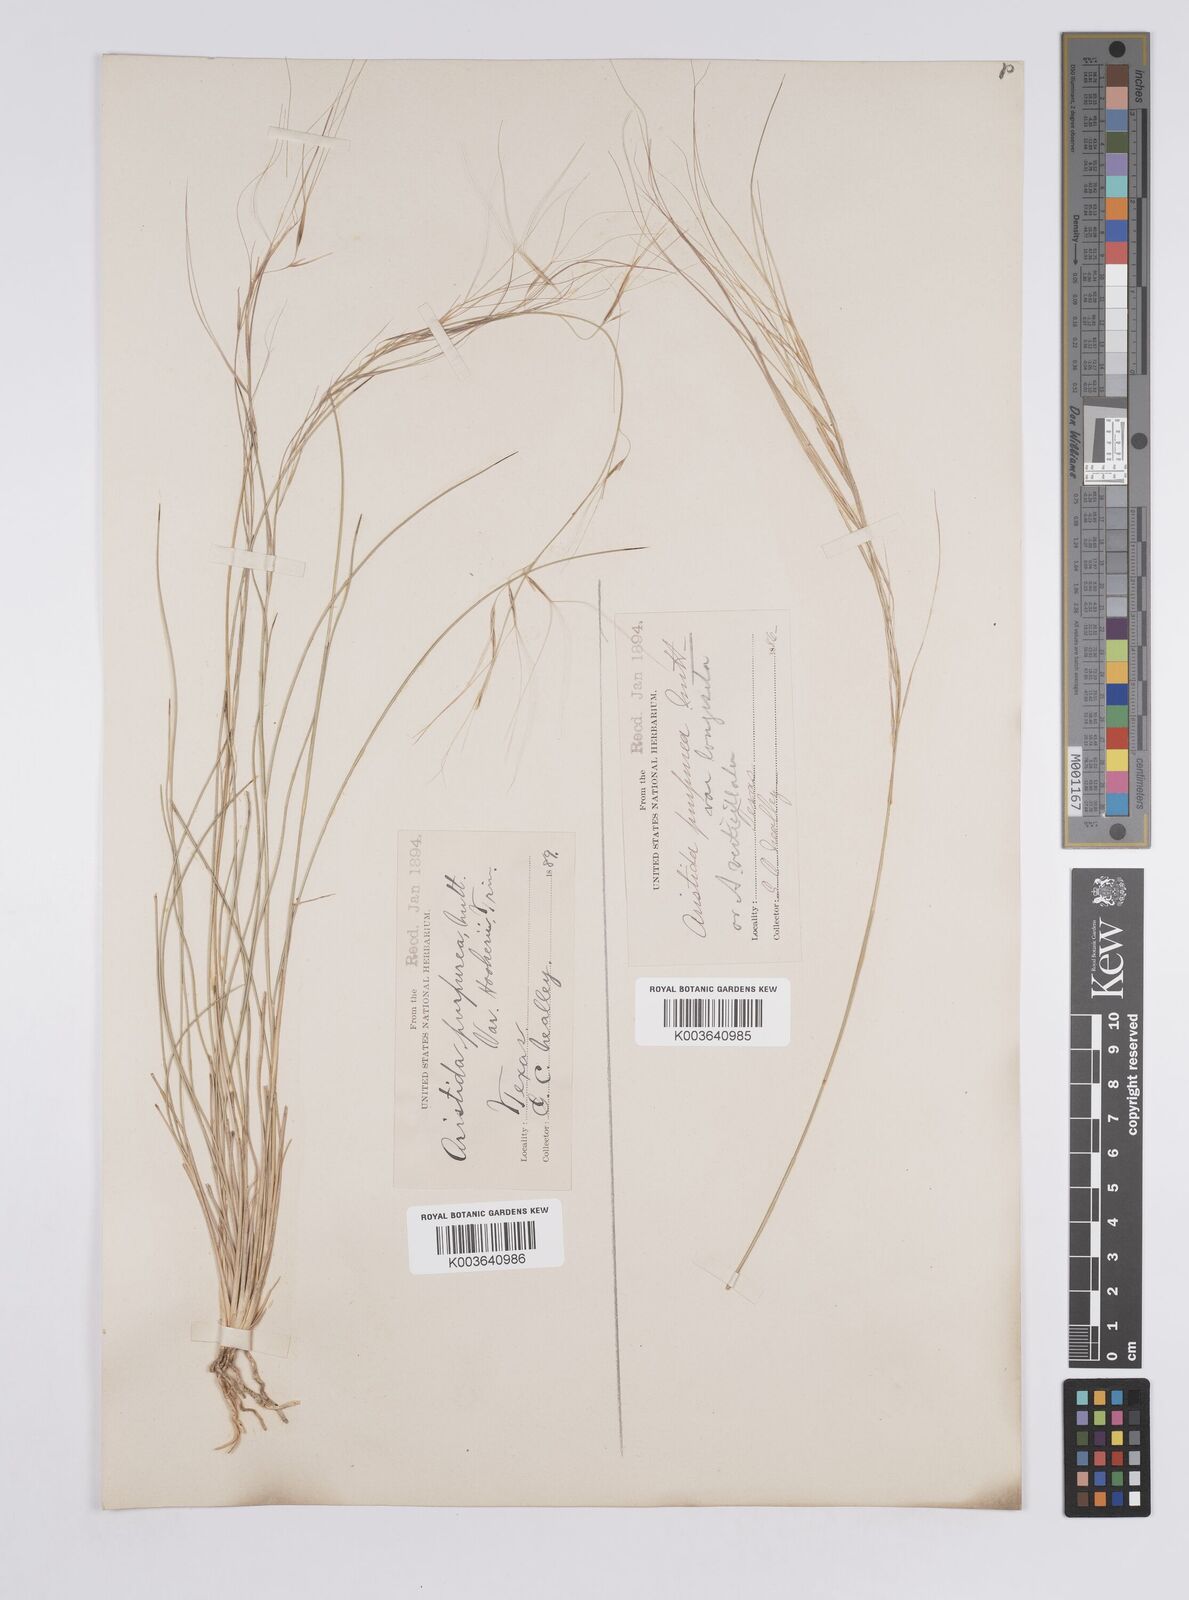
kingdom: Plantae
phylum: Tracheophyta
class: Liliopsida
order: Poales
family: Poaceae
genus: Aristida
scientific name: Aristida purpurea
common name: Purple threeawn
